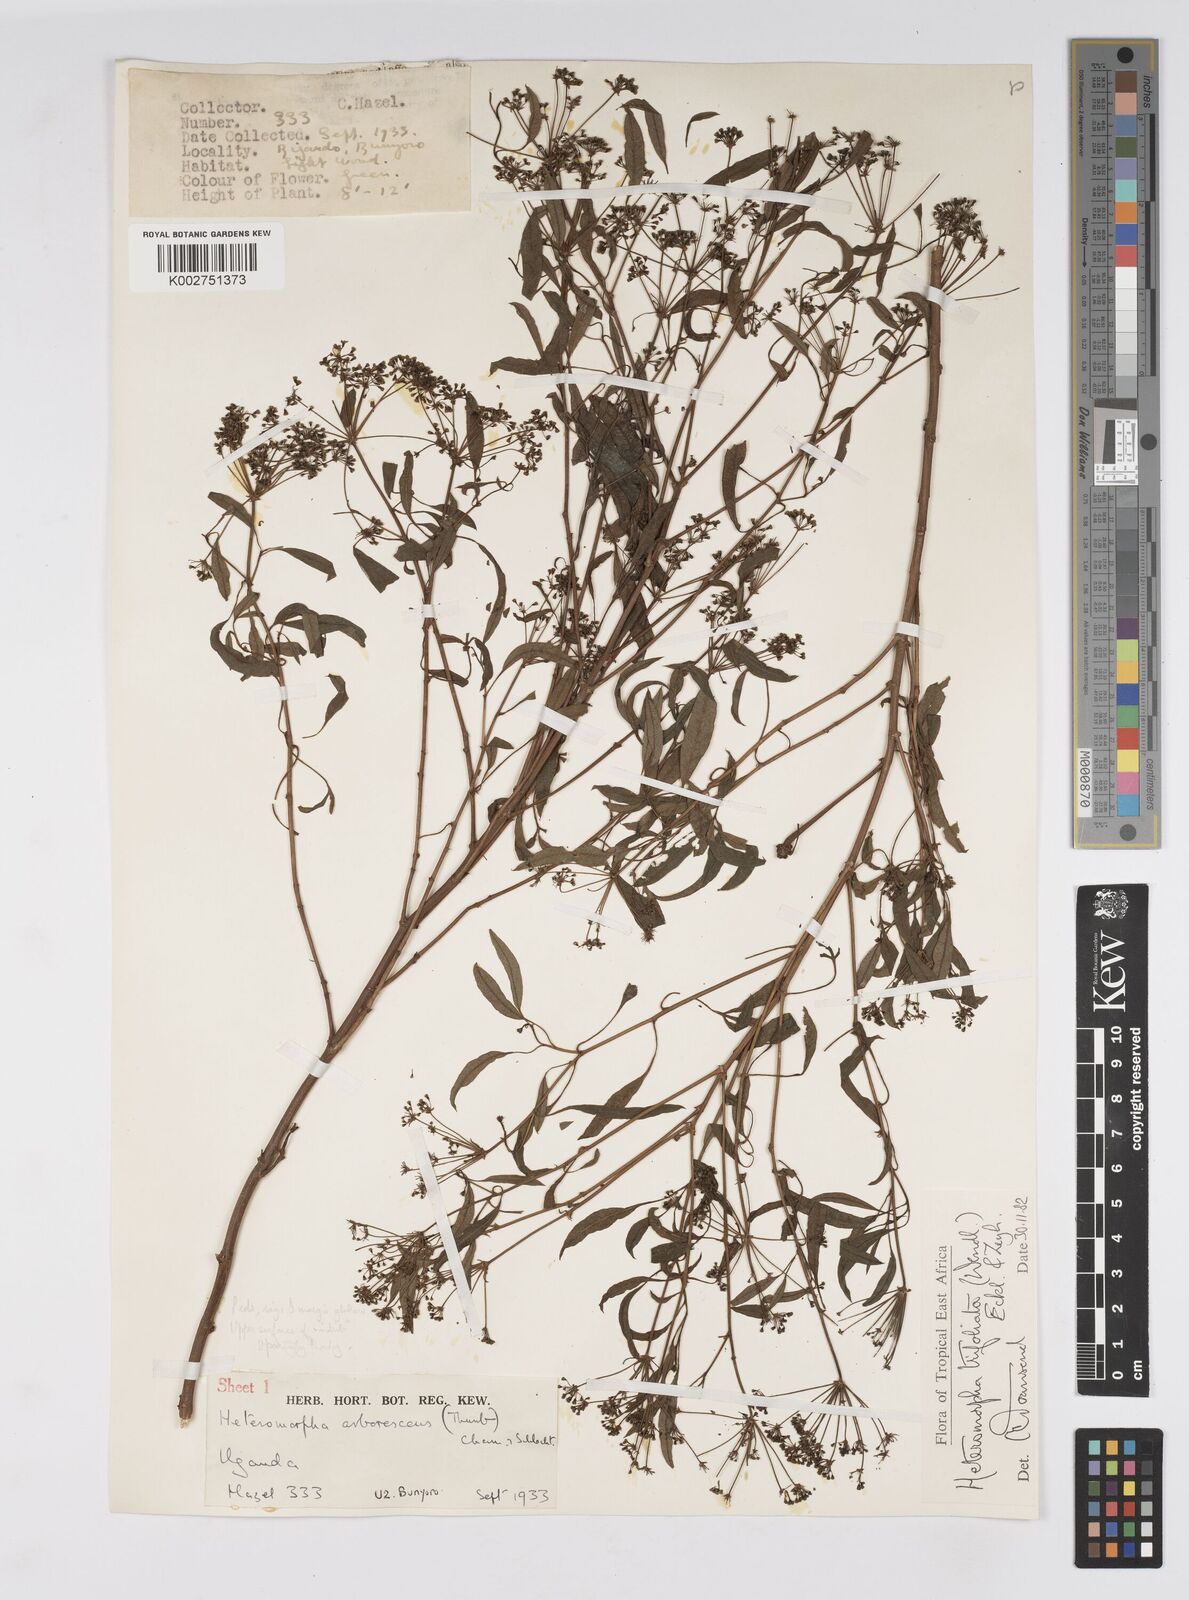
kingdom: Plantae
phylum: Tracheophyta
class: Magnoliopsida
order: Apiales
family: Apiaceae
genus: Heteromorpha
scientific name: Heteromorpha arborescens
